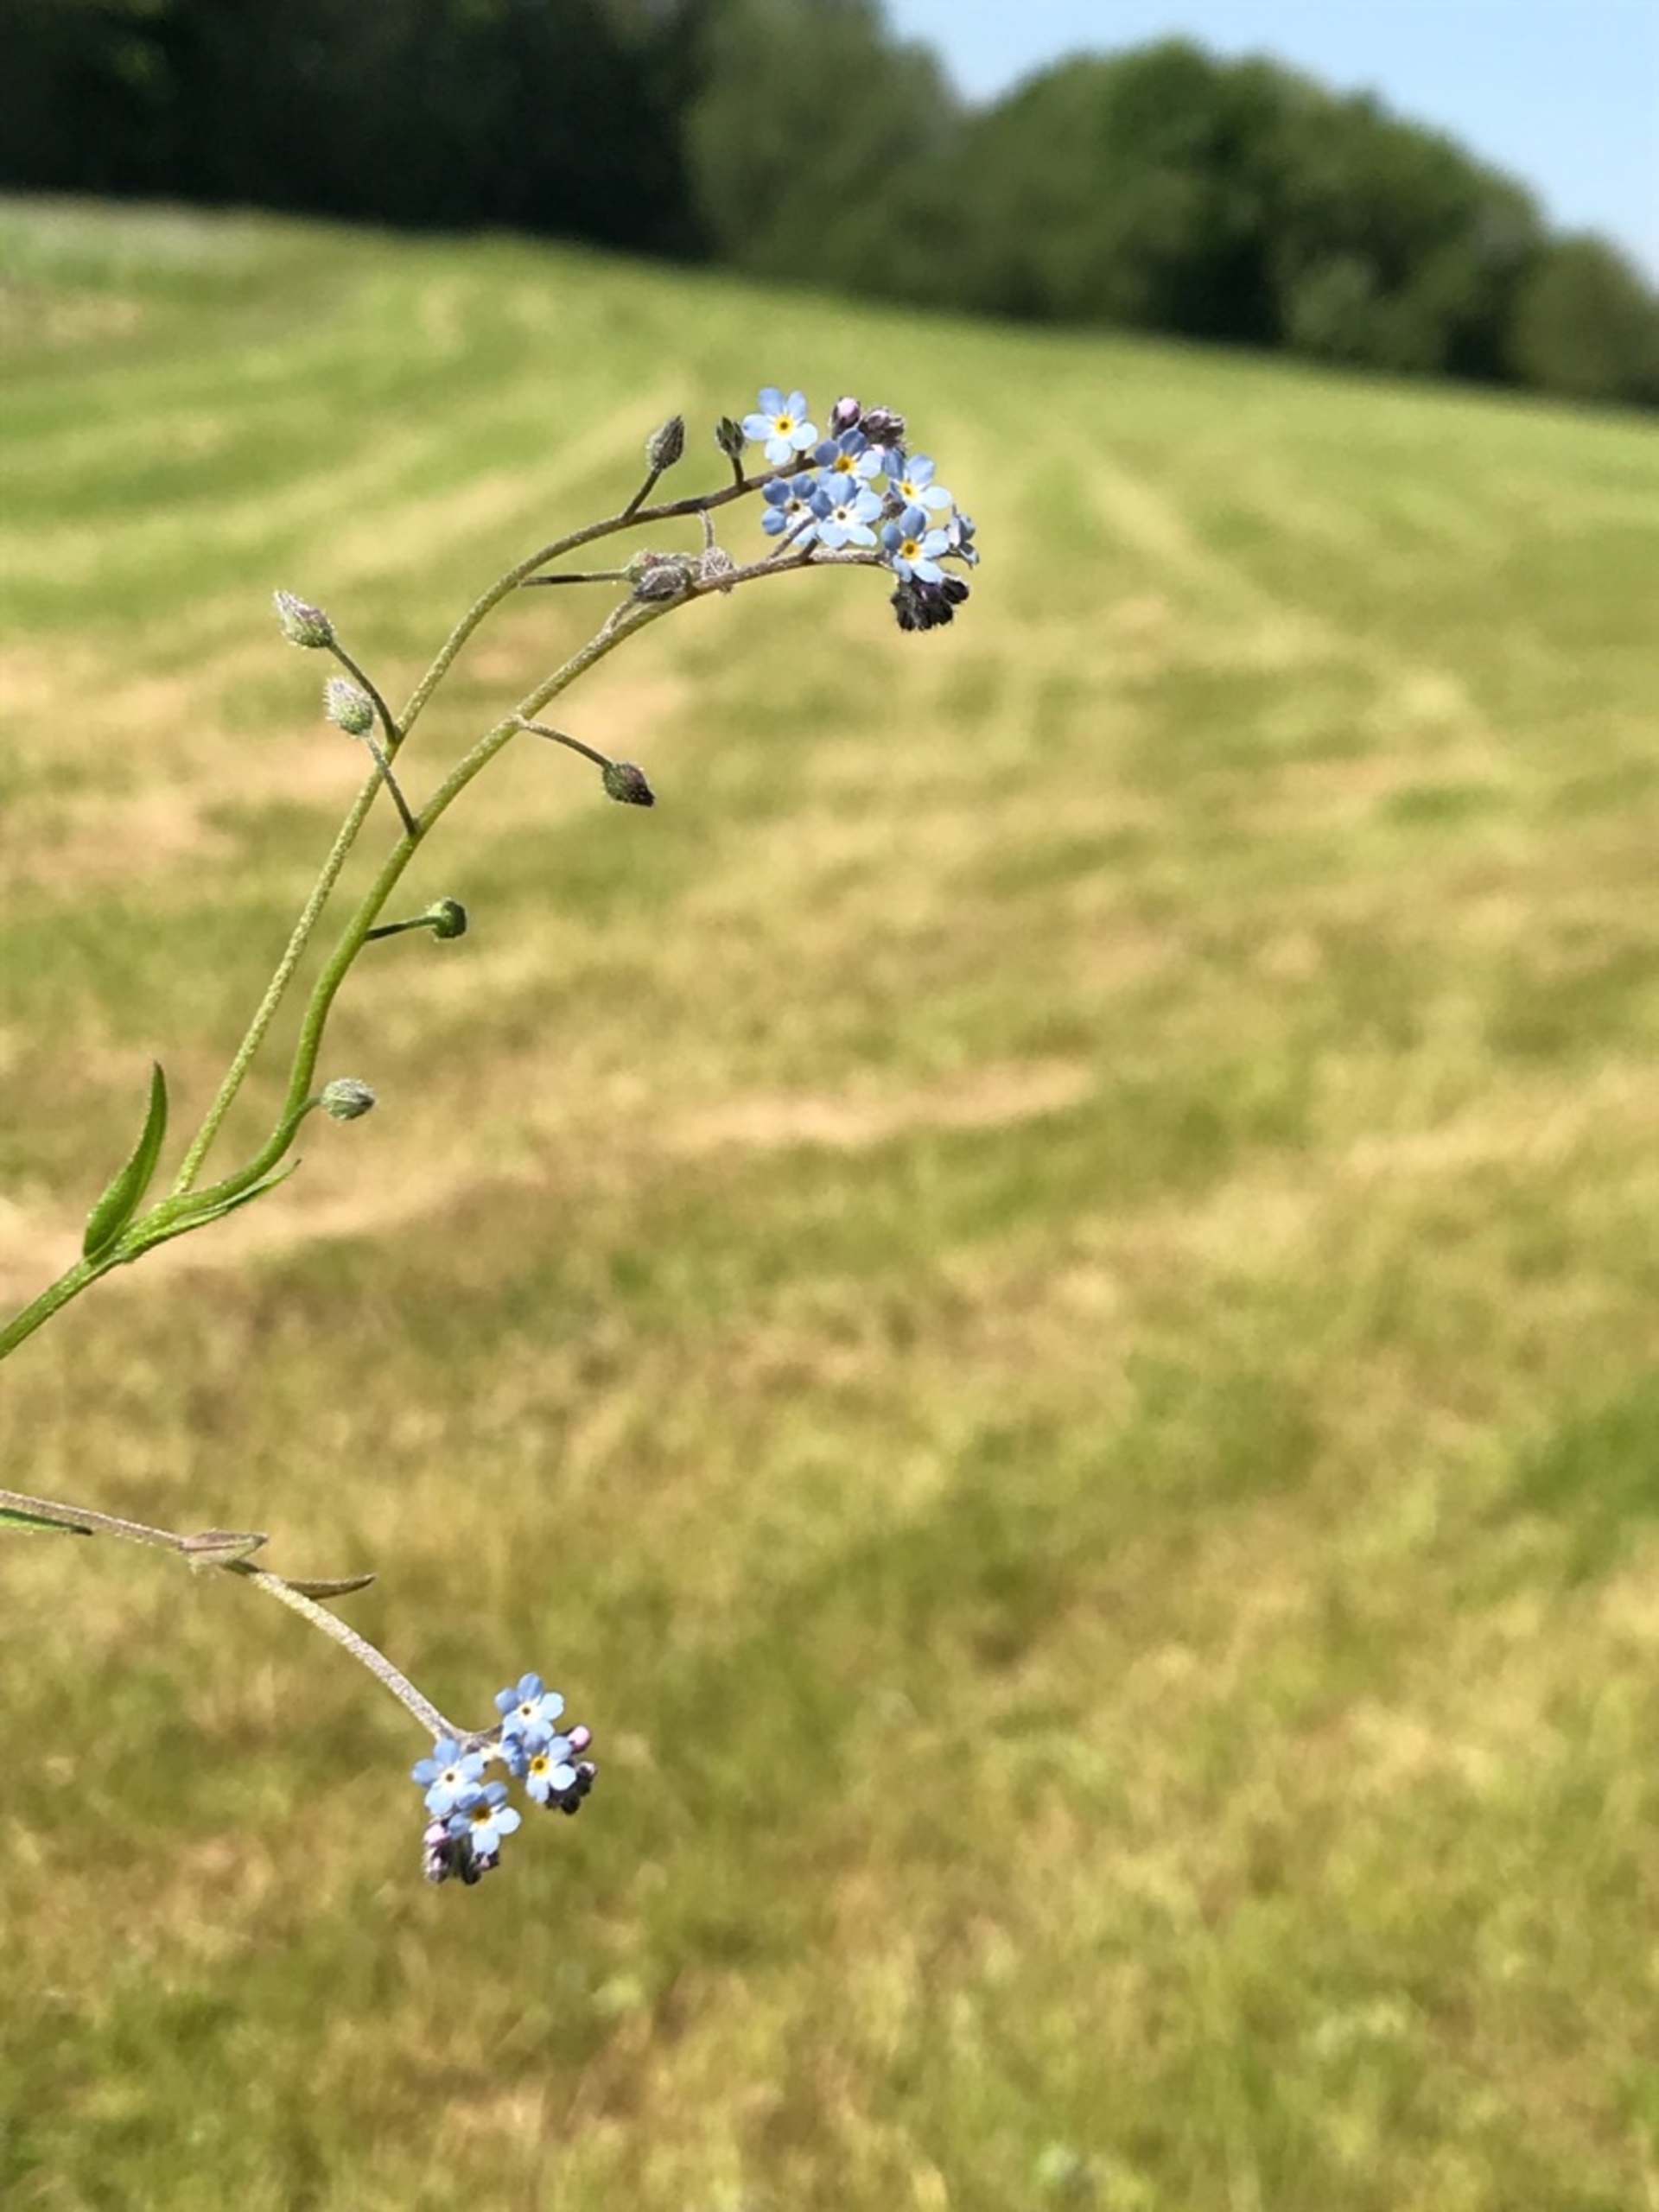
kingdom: Plantae
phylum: Tracheophyta
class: Magnoliopsida
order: Boraginales
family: Boraginaceae
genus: Myosotis
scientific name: Myosotis arvensis
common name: Mark-forglemmigej
